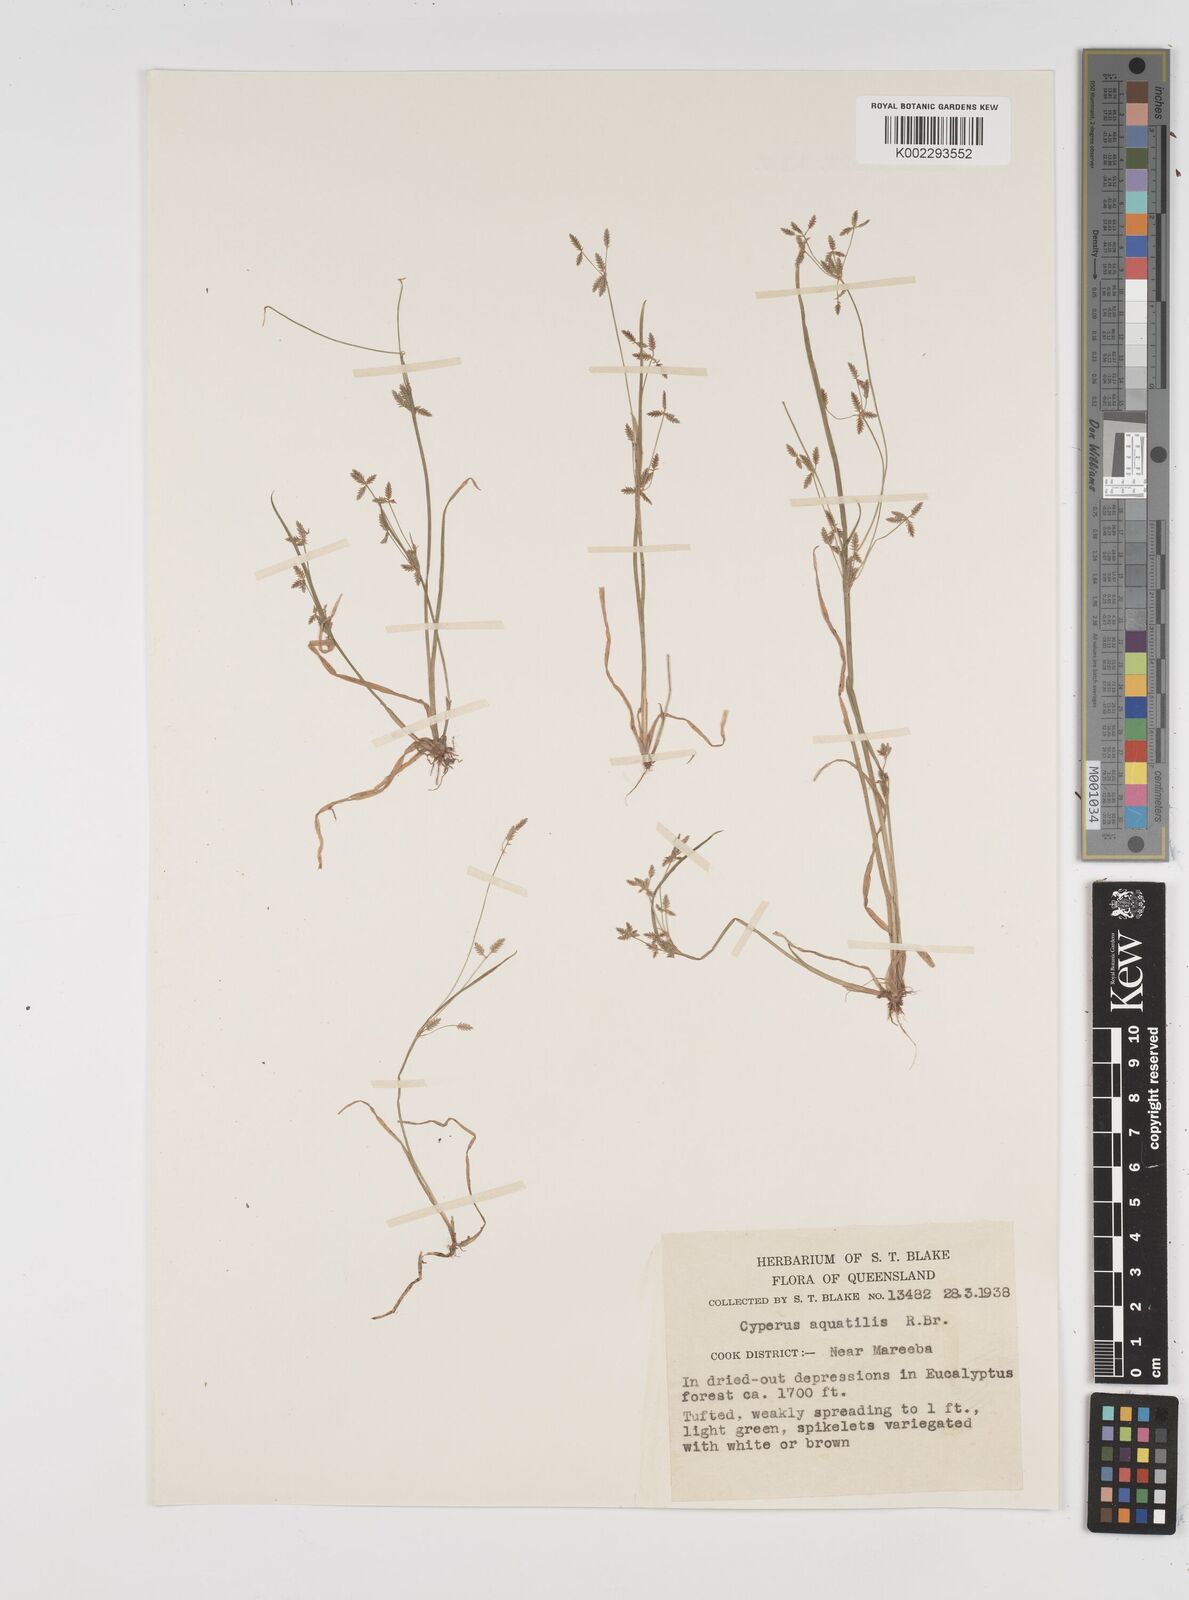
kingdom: Plantae
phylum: Tracheophyta
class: Liliopsida
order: Poales
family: Cyperaceae
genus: Cyperus
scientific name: Cyperus aquatilis
